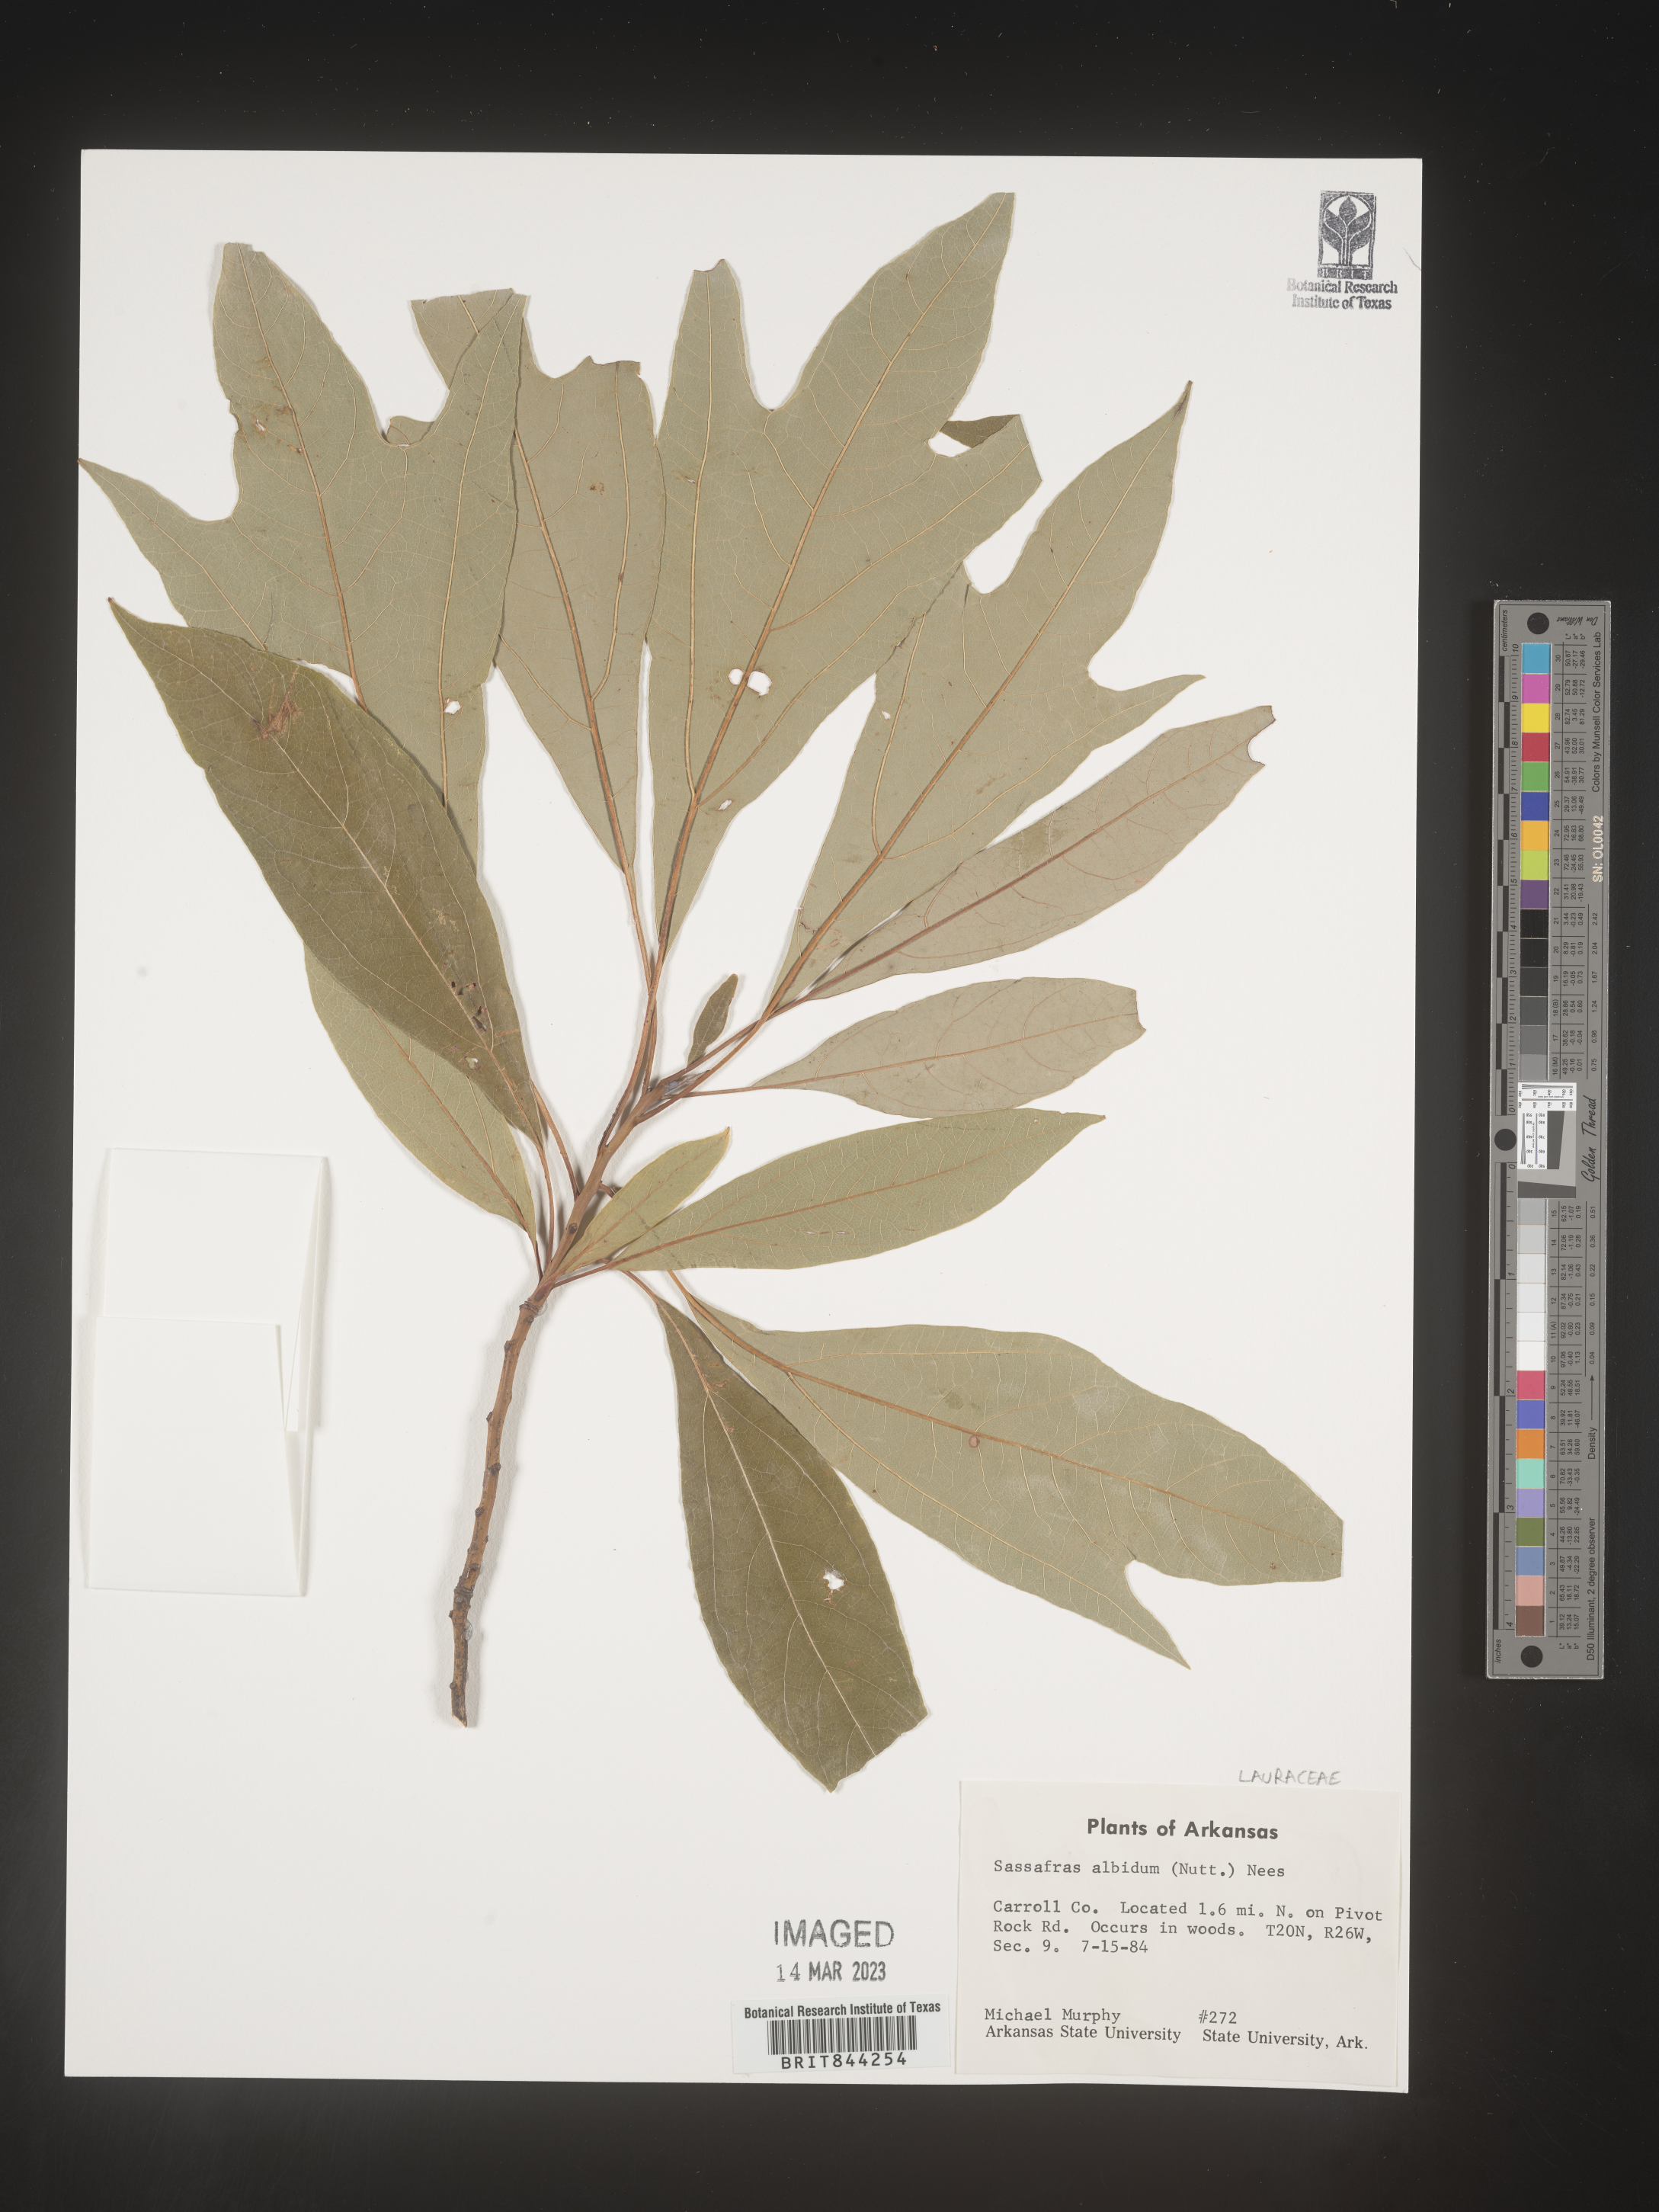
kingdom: Plantae
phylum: Tracheophyta
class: Magnoliopsida
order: Laurales
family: Lauraceae
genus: Sassafras
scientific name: Sassafras albidum
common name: Sassafras
